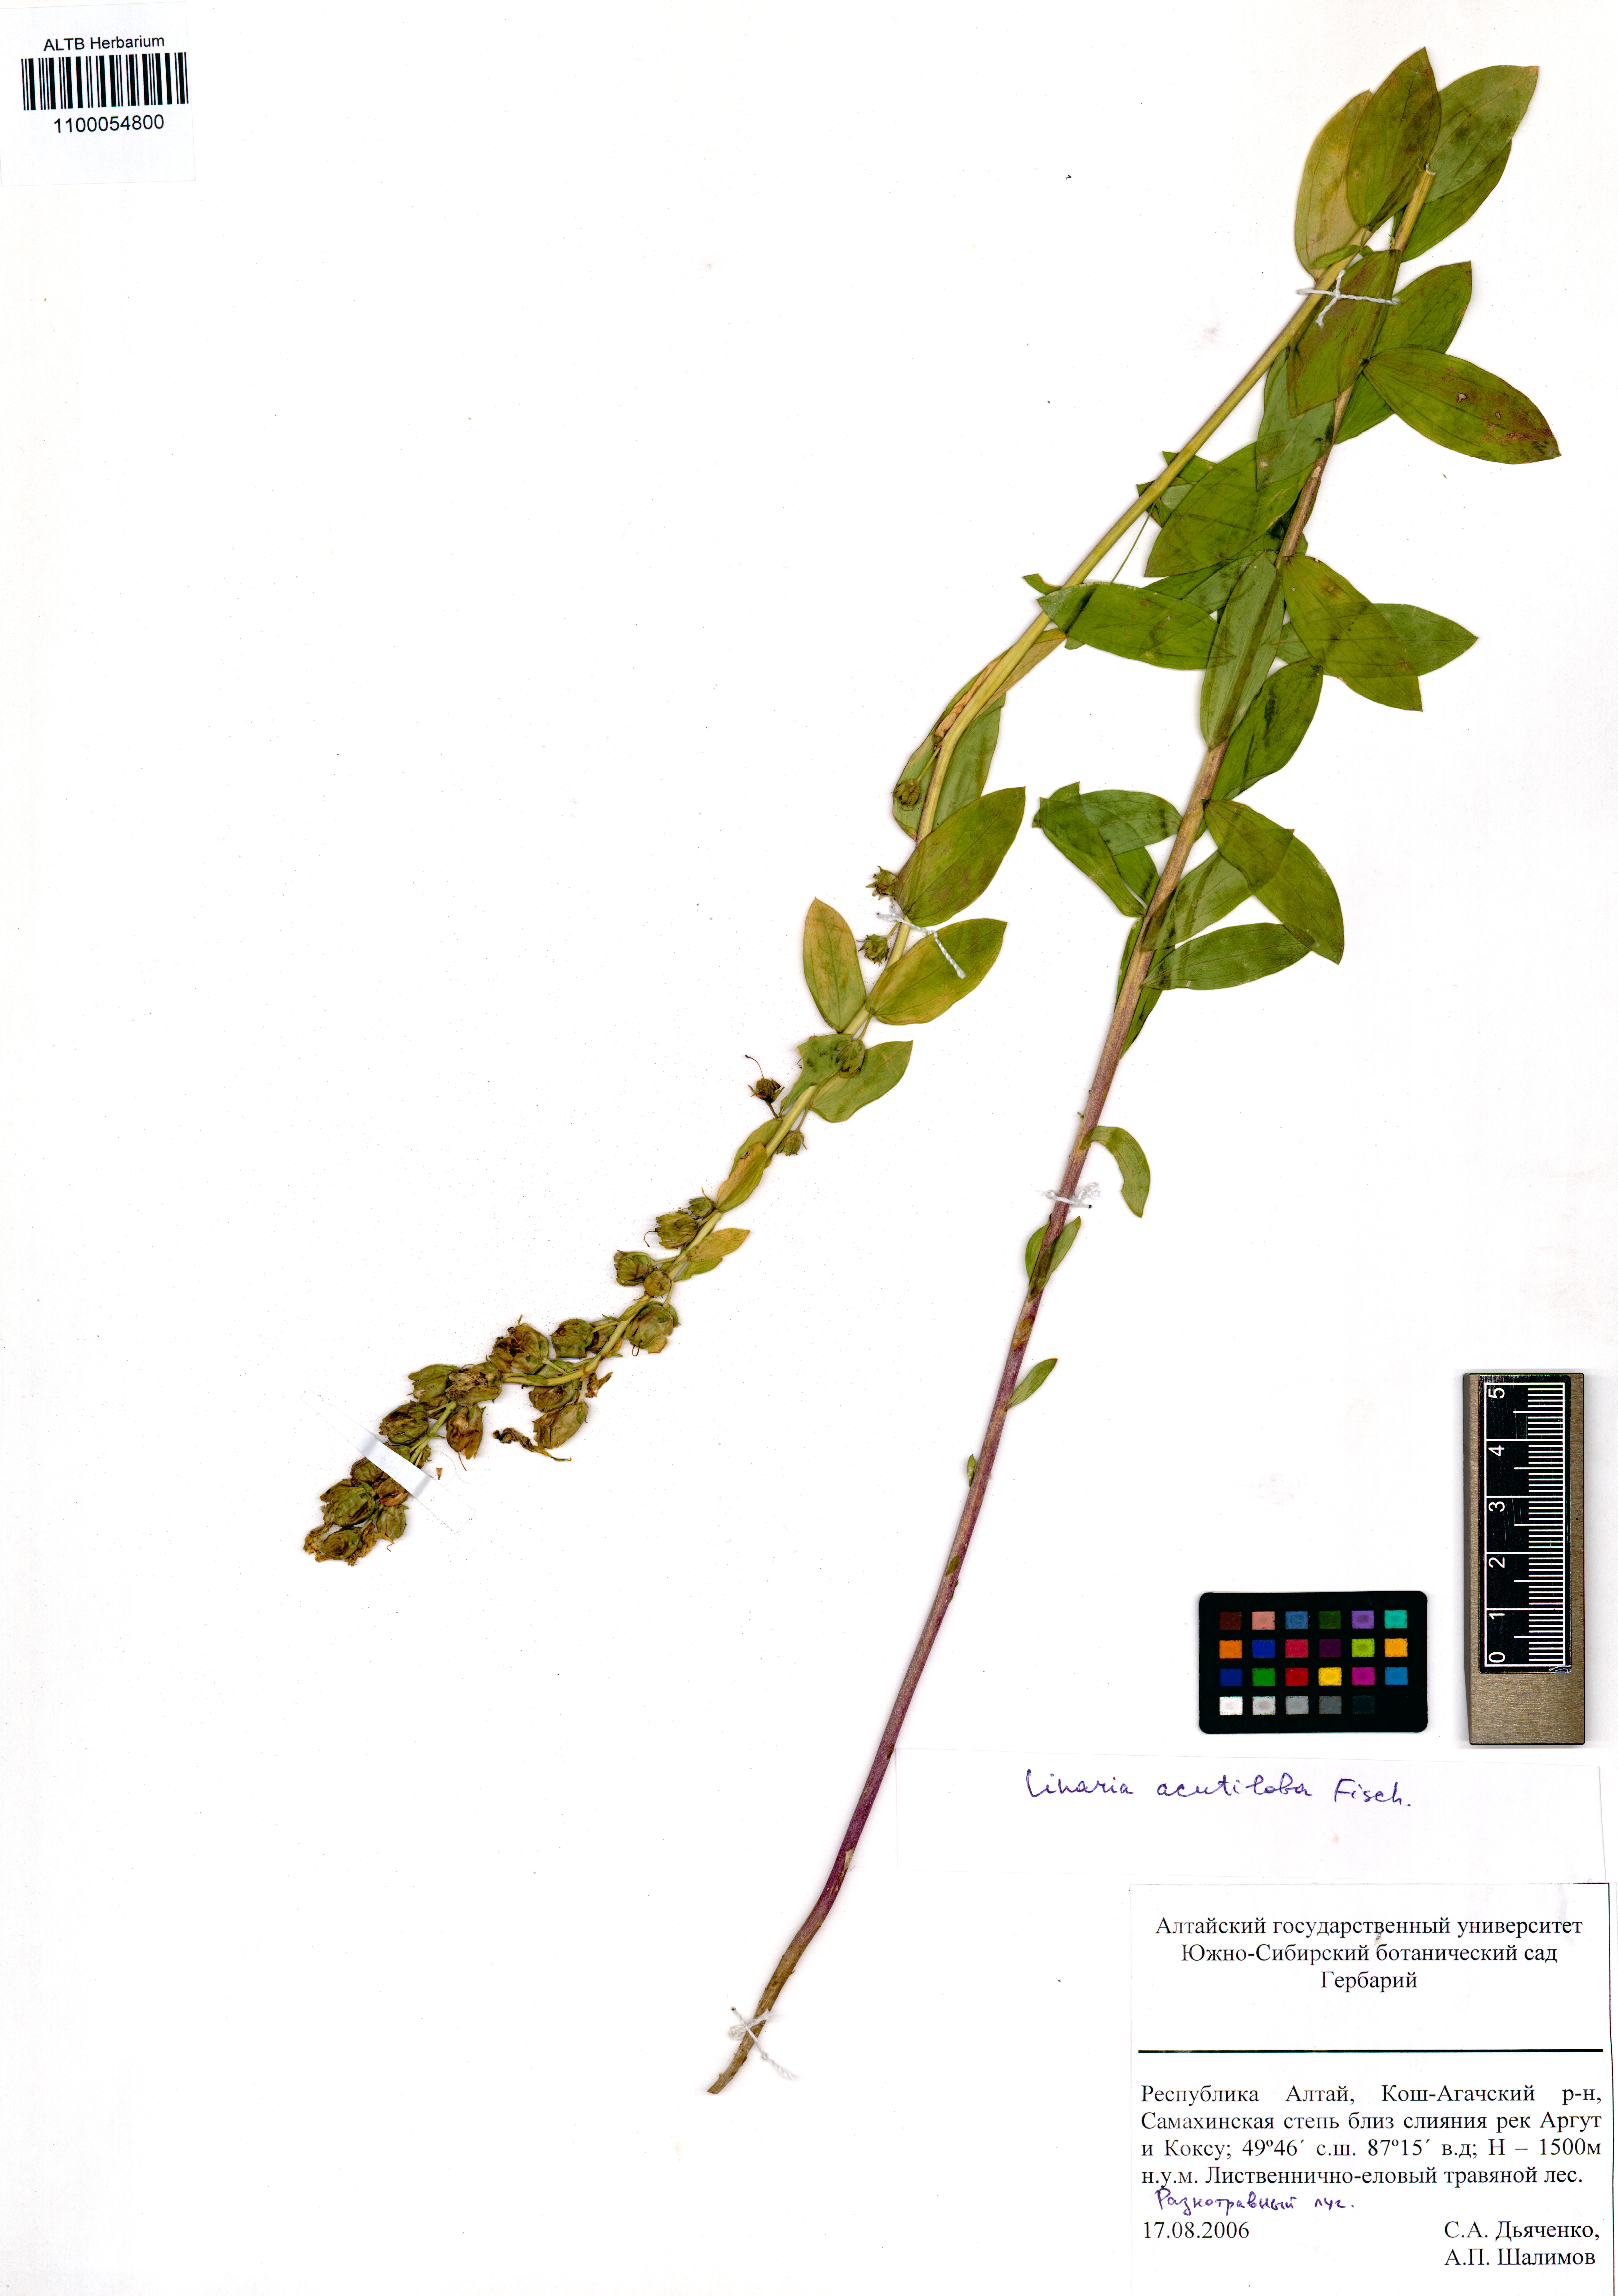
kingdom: Plantae
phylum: Tracheophyta
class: Magnoliopsida
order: Lamiales
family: Plantaginaceae
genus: Linaria
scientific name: Linaria acutiloba
